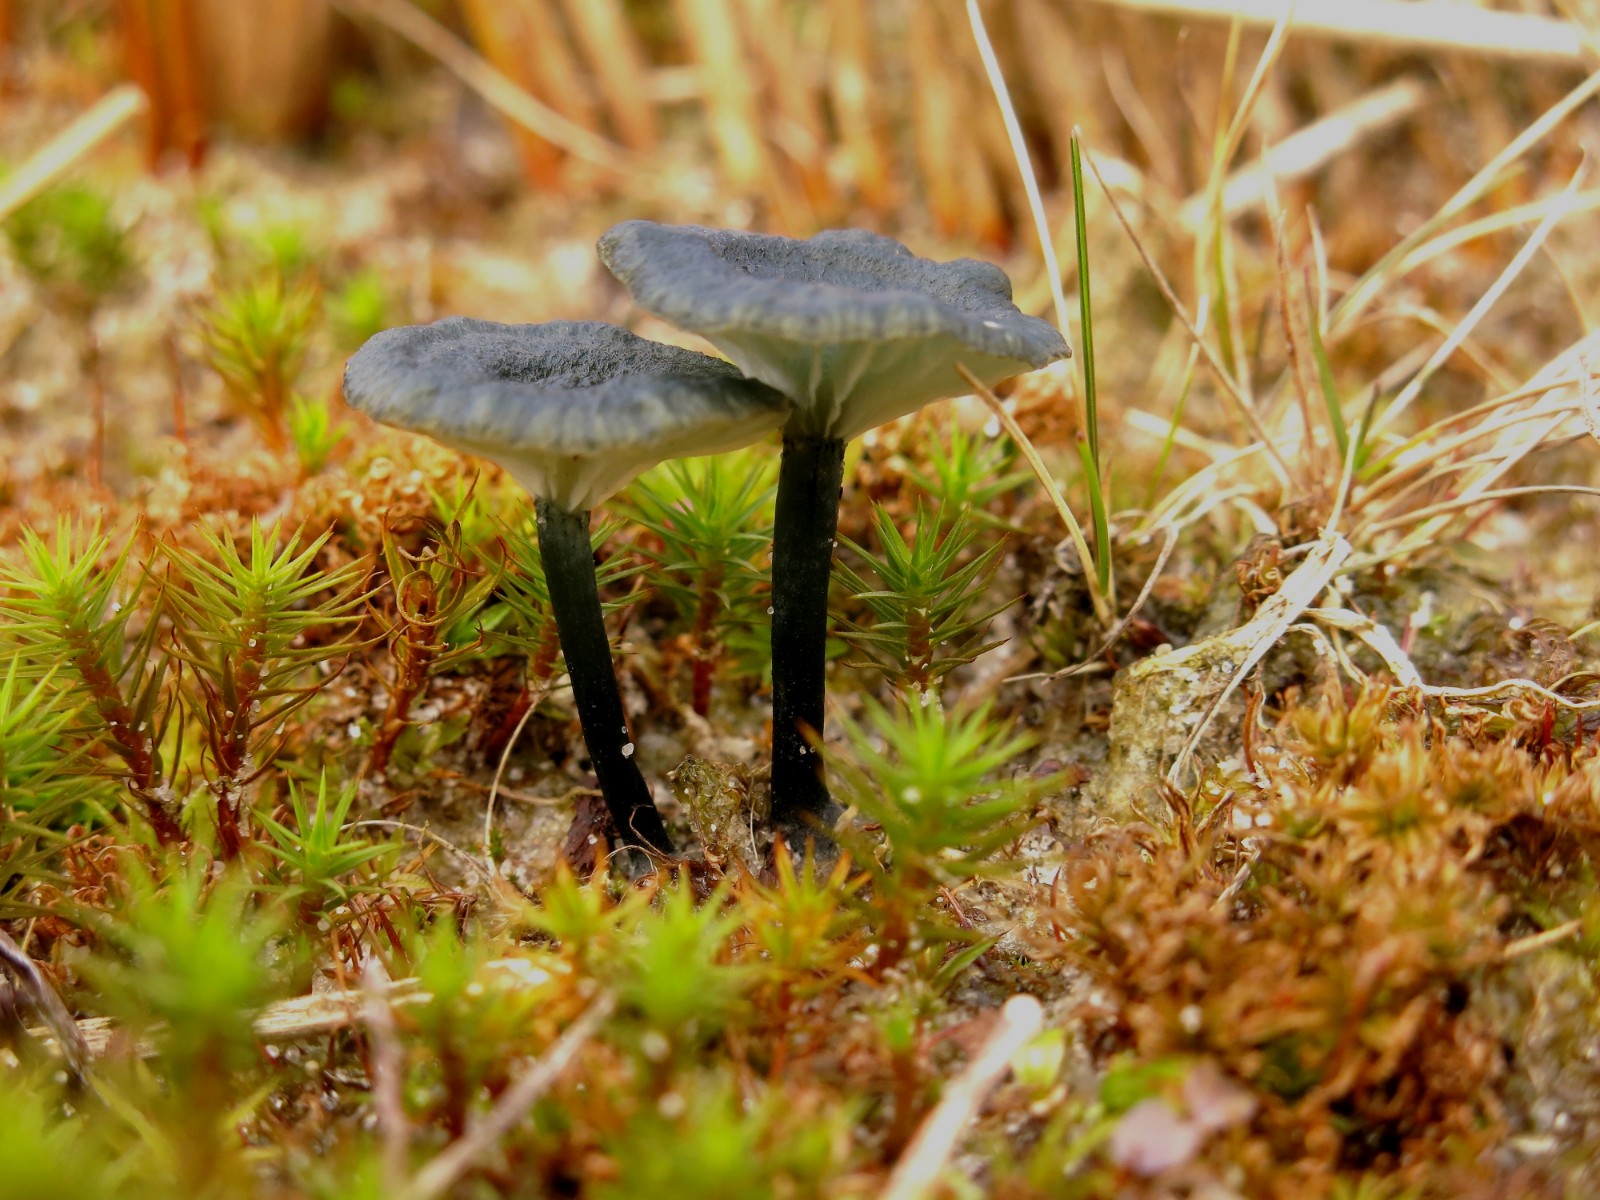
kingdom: Fungi
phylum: Basidiomycota
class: Agaricomycetes
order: Agaricales
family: Hygrophoraceae
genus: Arrhenia
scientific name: Arrhenia chlorocyanea
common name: blågrøn fontænehat
